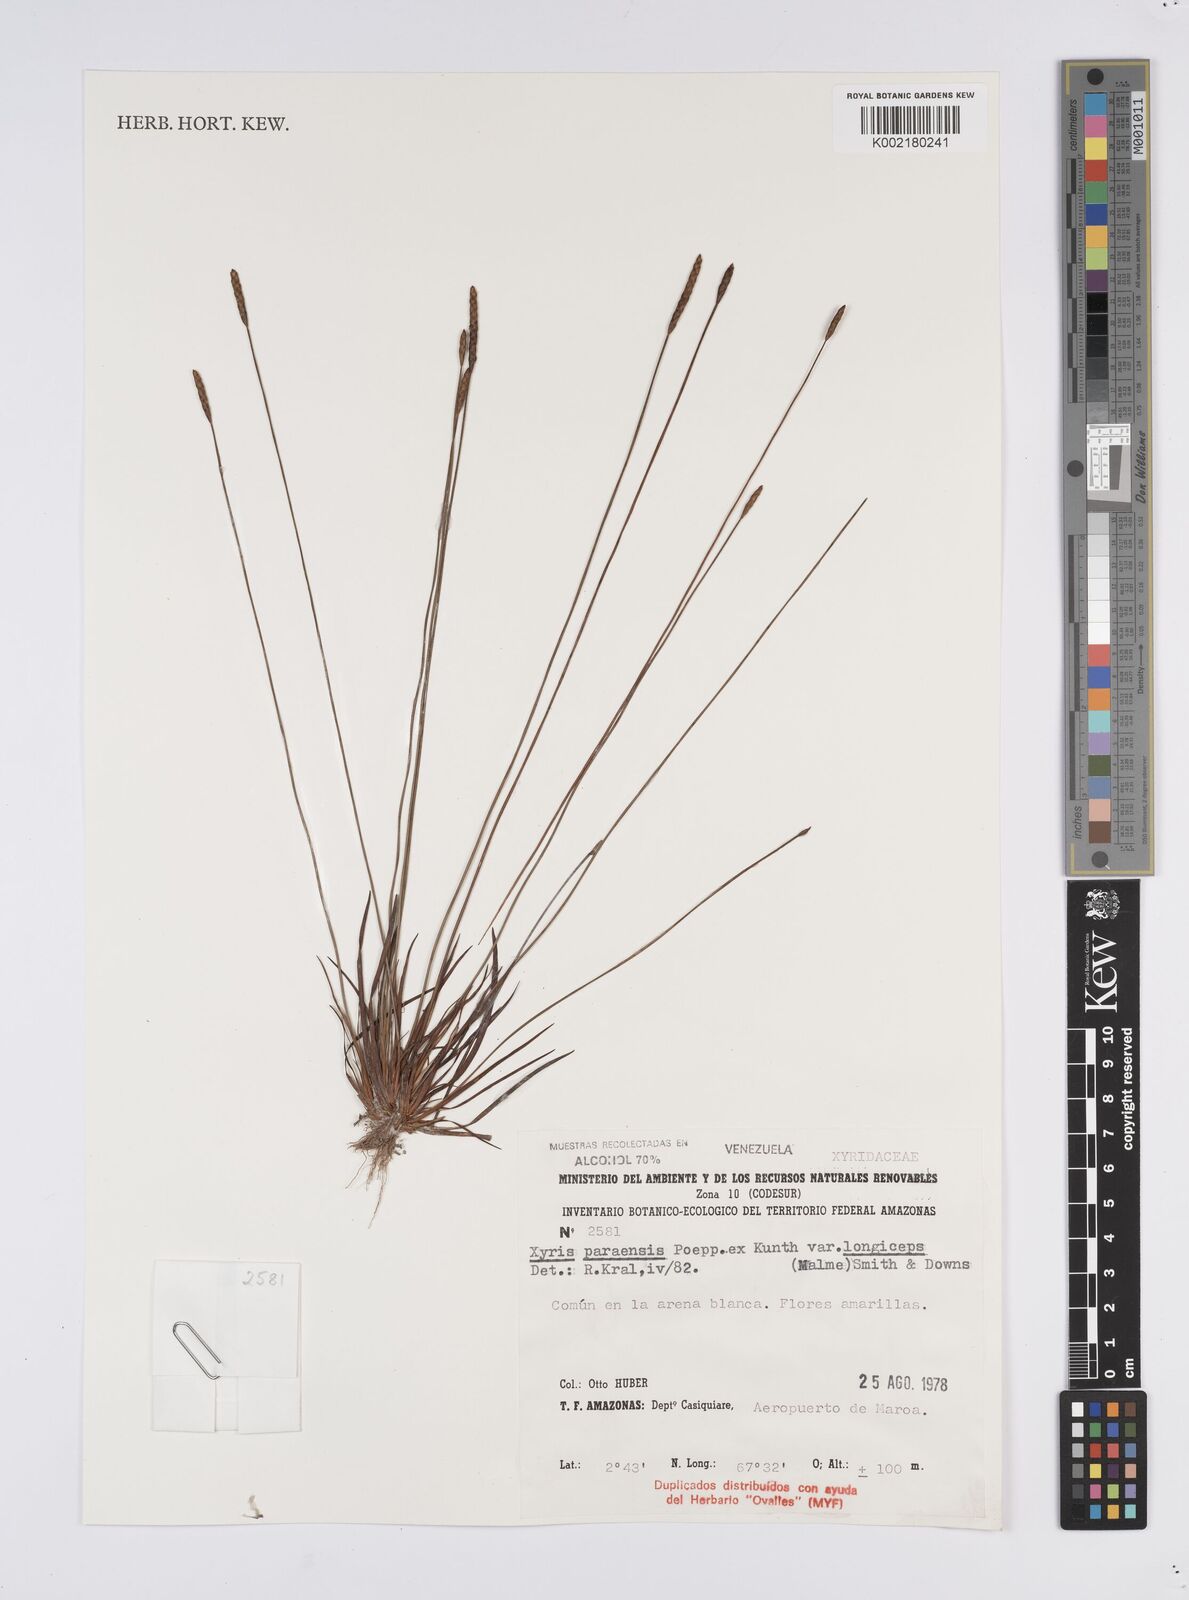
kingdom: Plantae
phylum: Tracheophyta
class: Liliopsida
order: Poales
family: Xyridaceae
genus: Xyris
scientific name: Xyris paraensis
